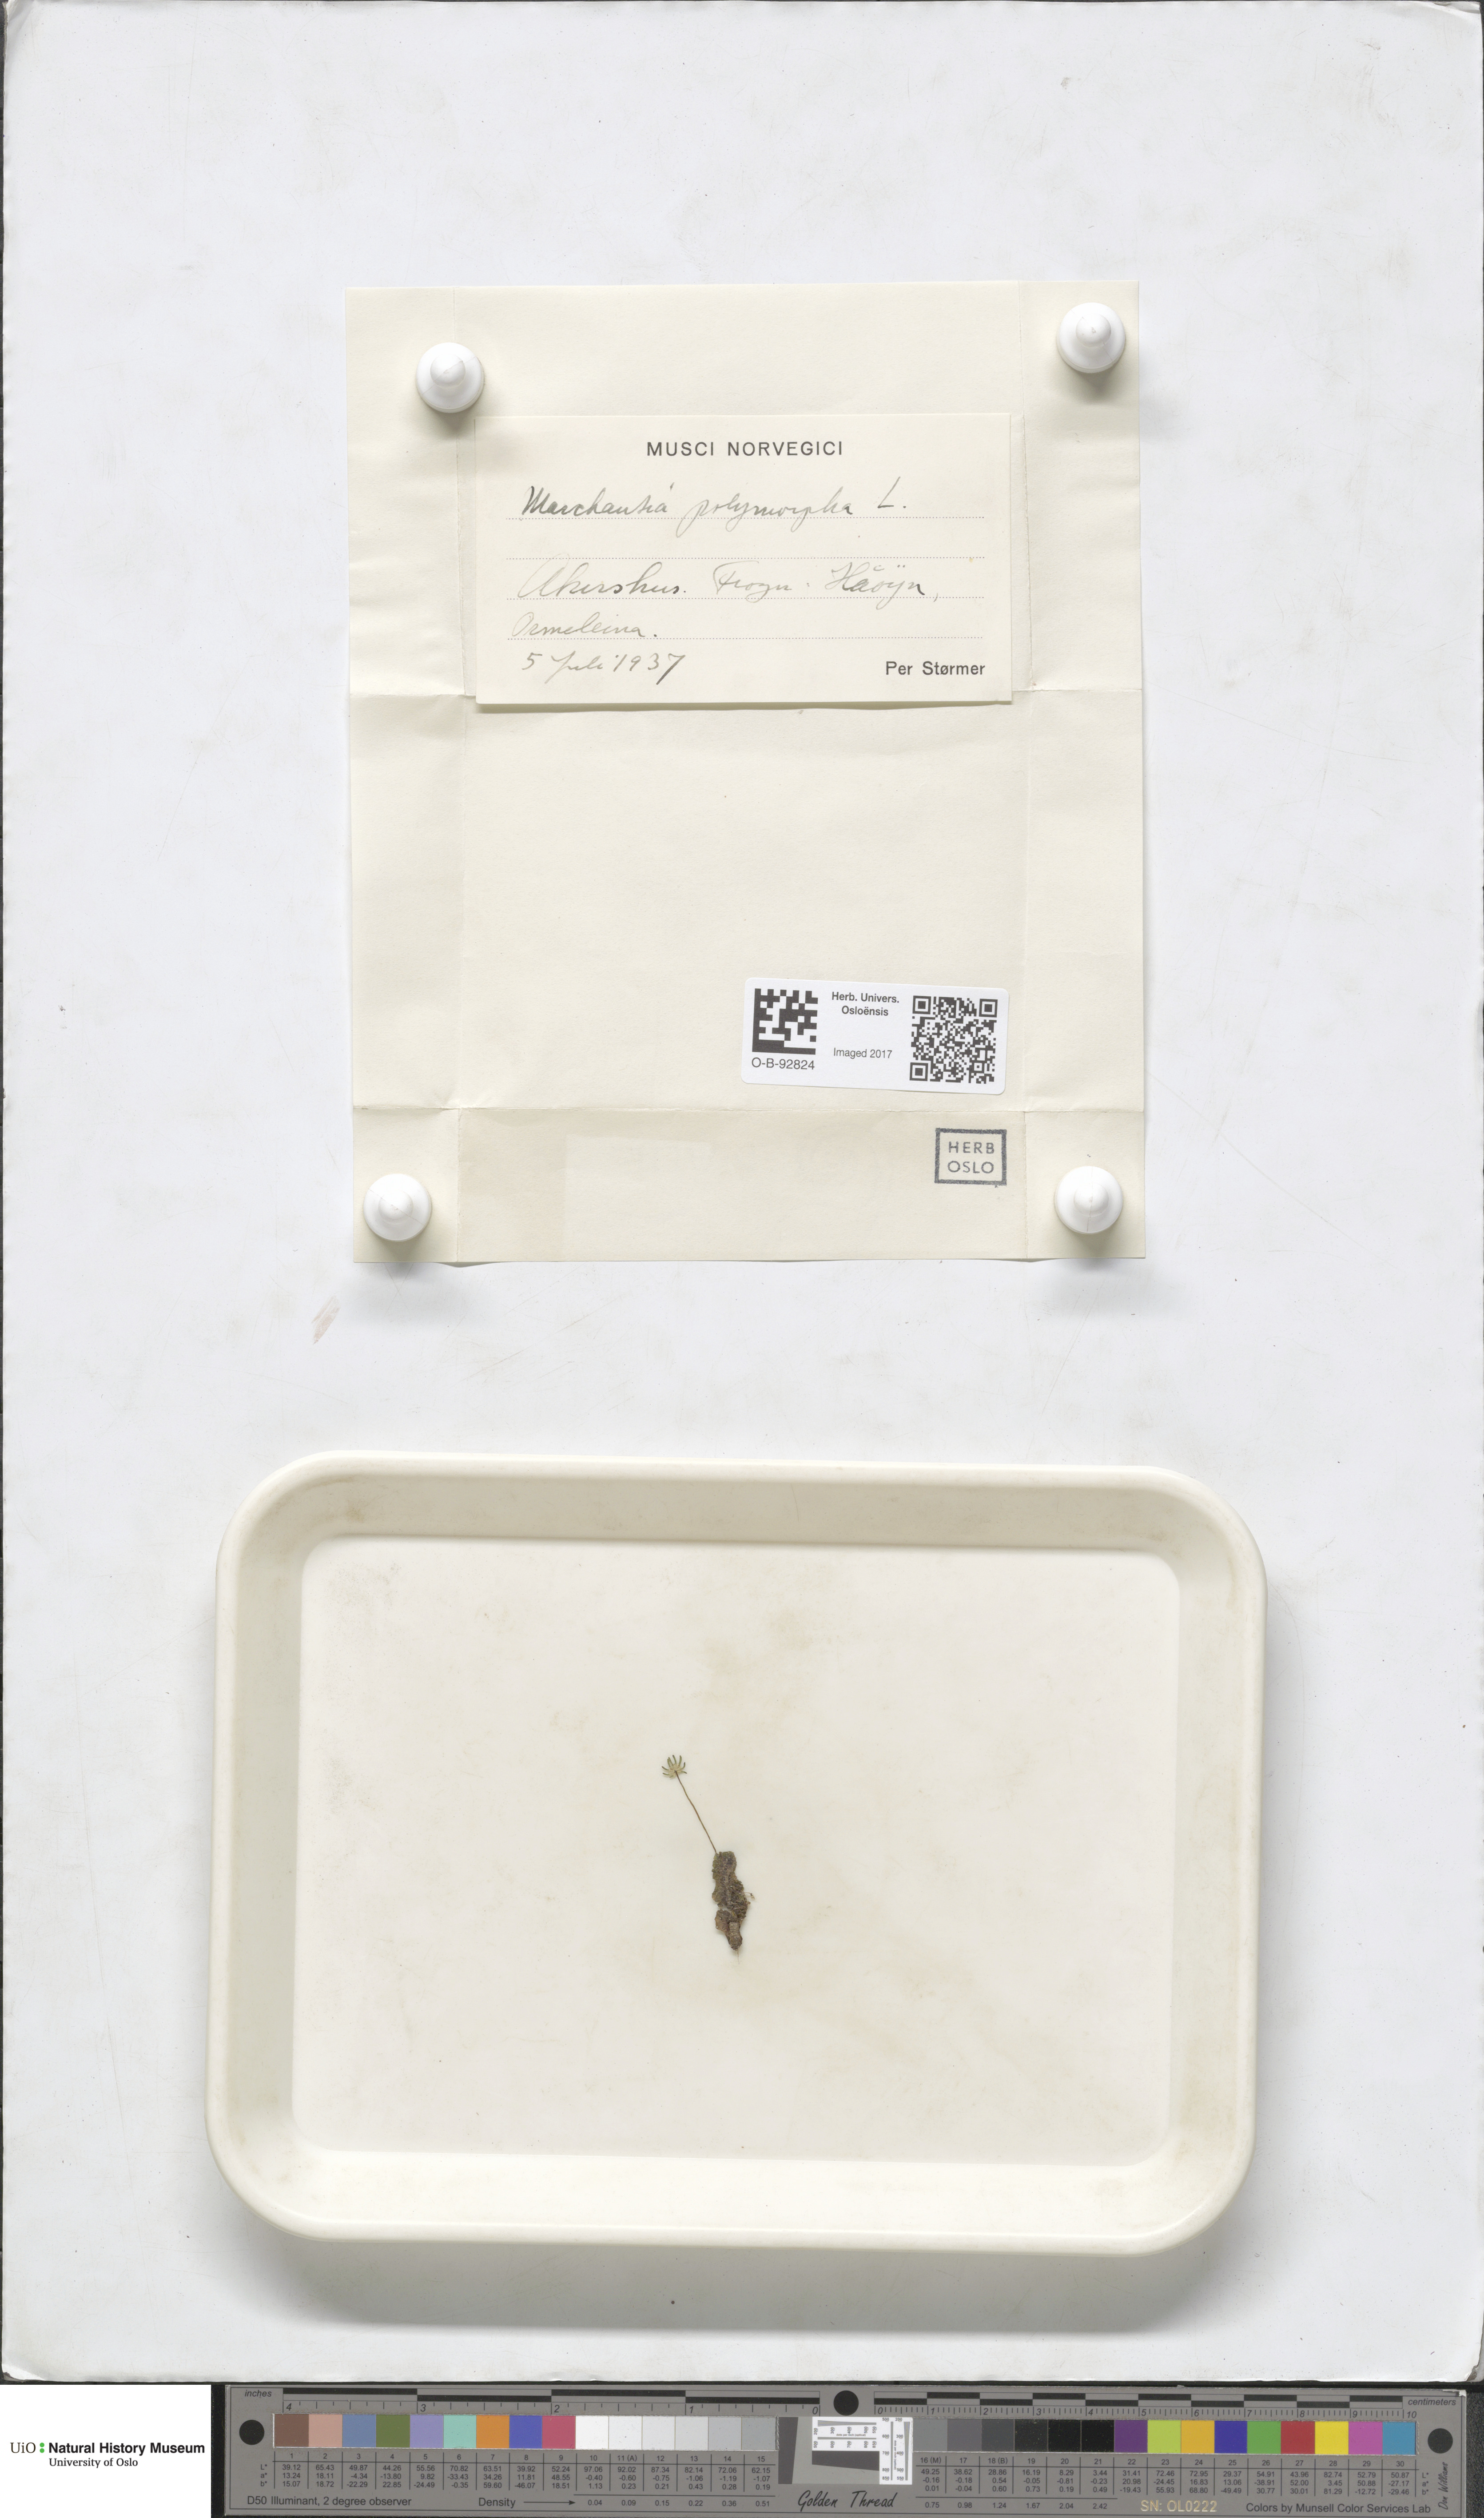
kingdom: Plantae
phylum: Marchantiophyta
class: Marchantiopsida
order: Marchantiales
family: Marchantiaceae
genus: Marchantia
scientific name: Marchantia polymorpha
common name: Common liverwort
